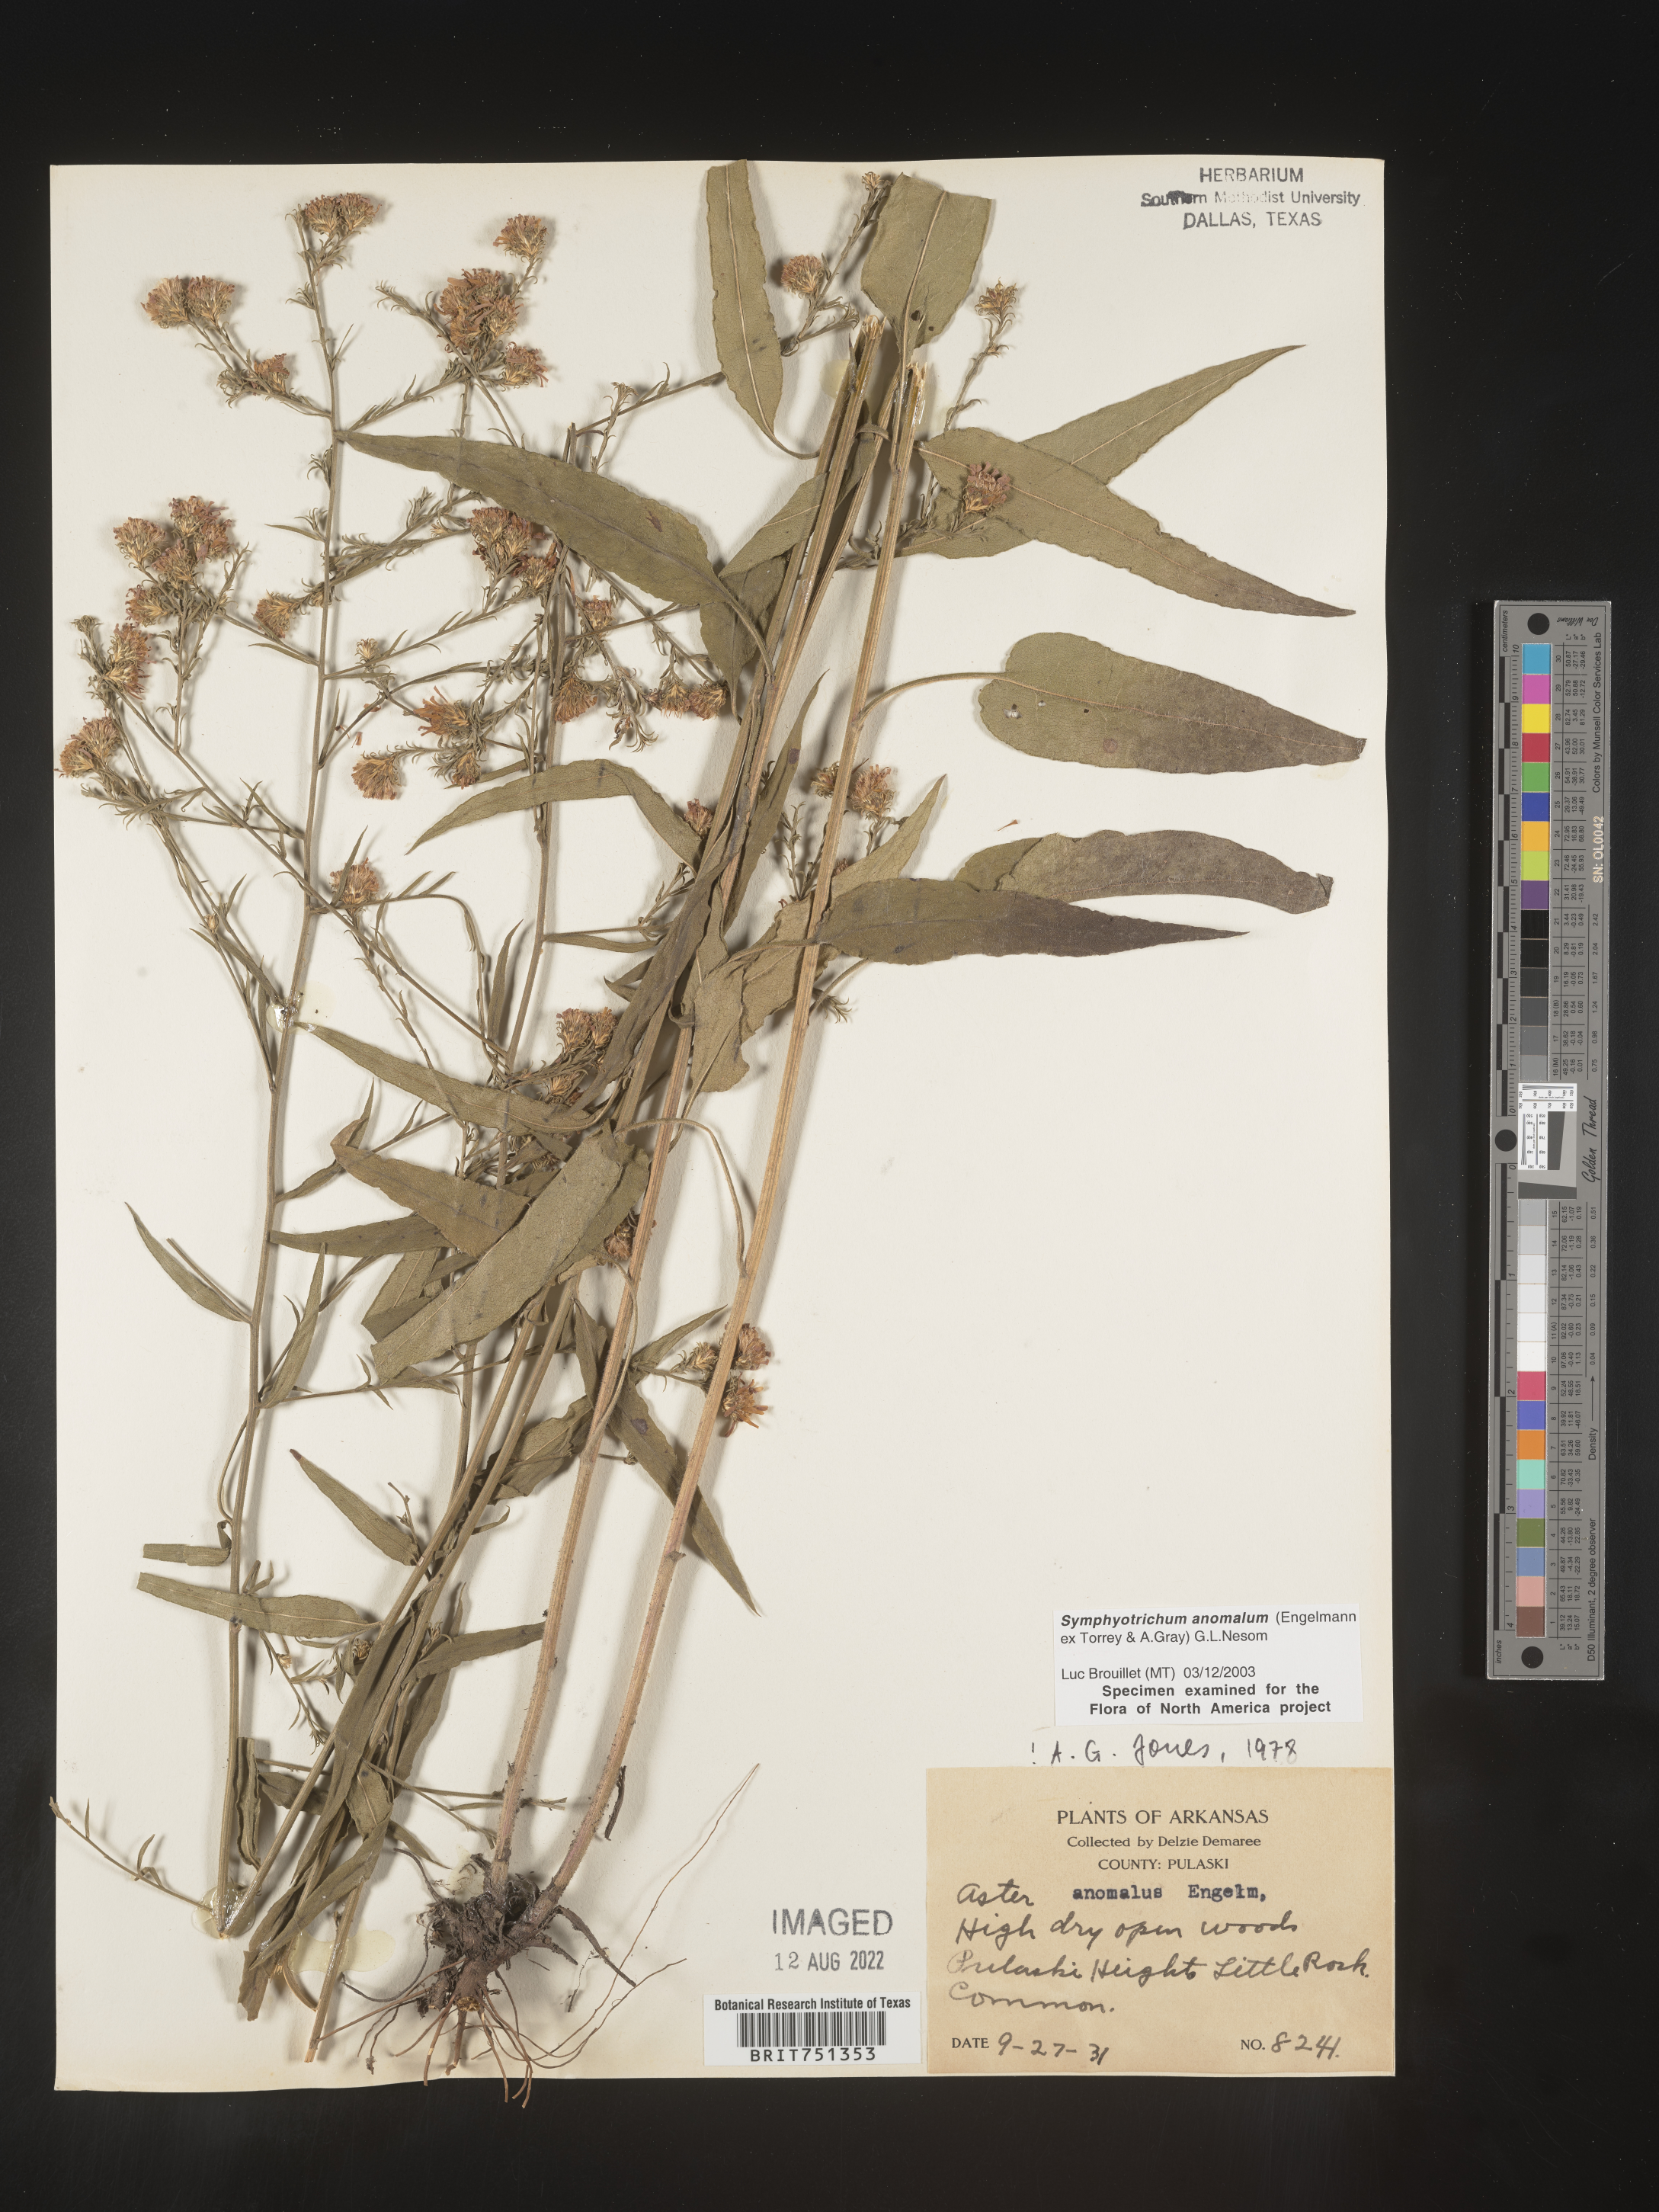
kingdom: Plantae
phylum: Tracheophyta
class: Magnoliopsida
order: Asterales
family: Asteraceae
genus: Symphyotrichum
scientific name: Symphyotrichum anomalum
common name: Many-ray aster
